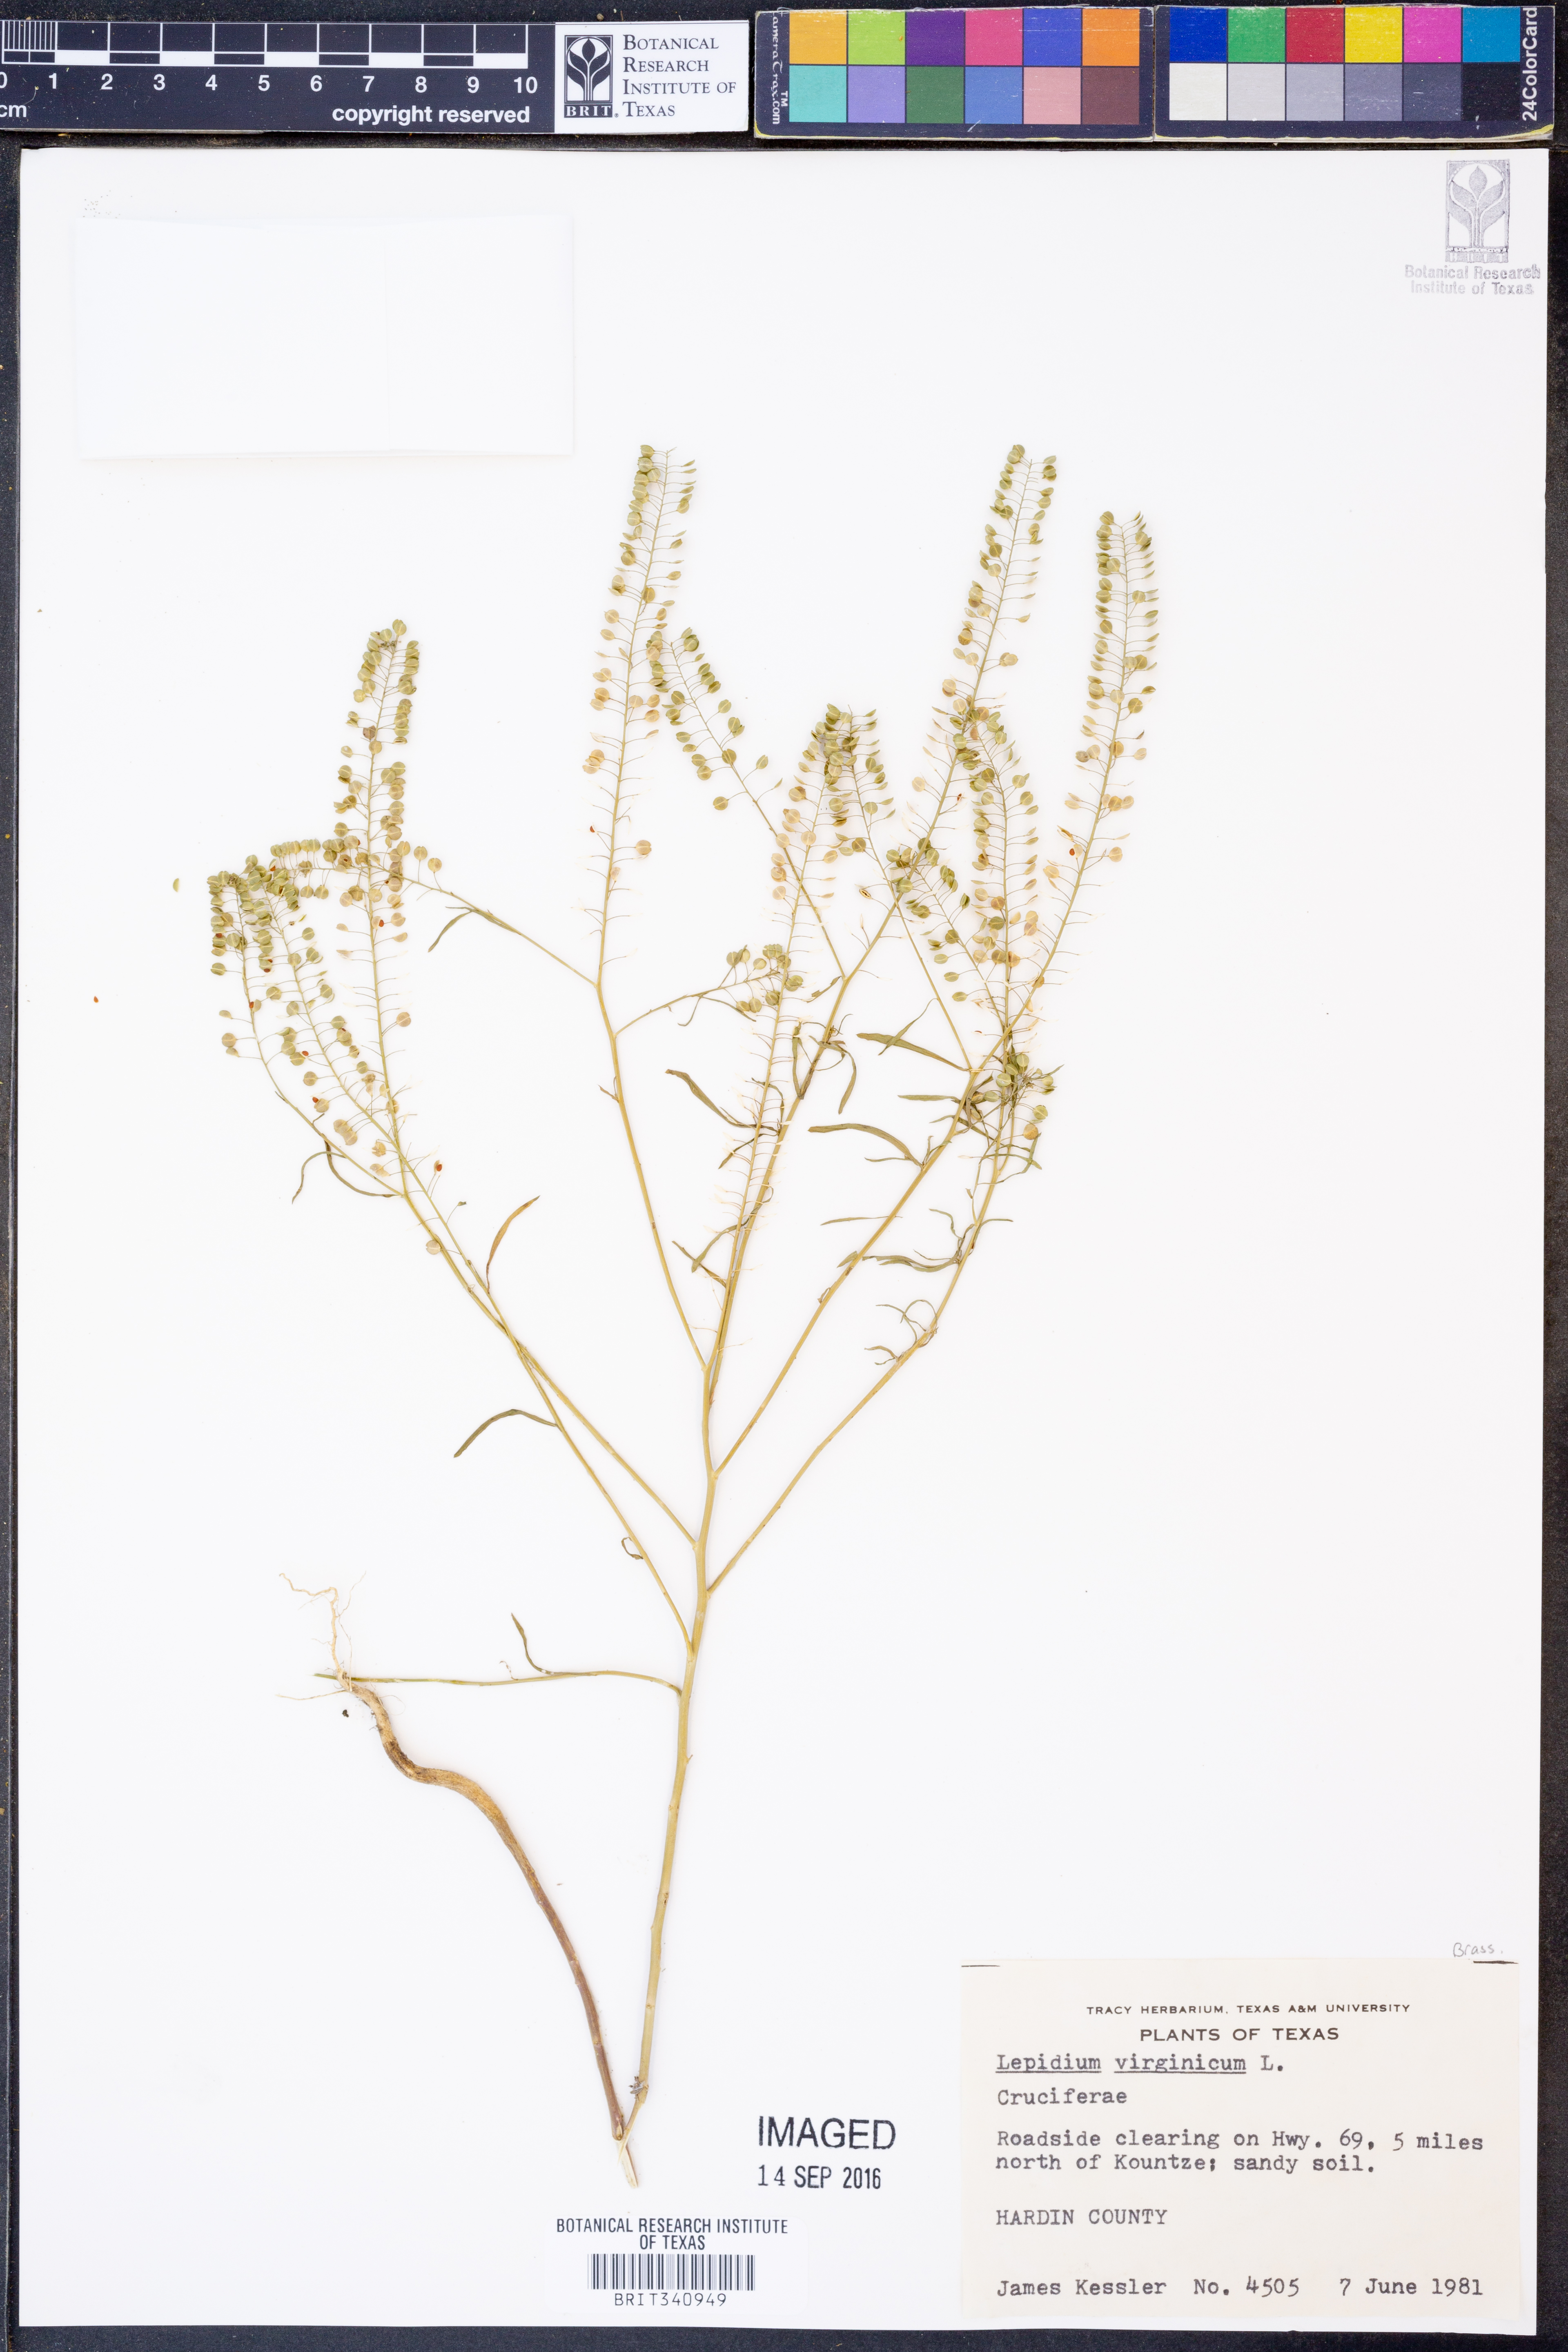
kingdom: Plantae
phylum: Tracheophyta
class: Magnoliopsida
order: Brassicales
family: Brassicaceae
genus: Lepidium
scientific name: Lepidium virginicum
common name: Least pepperwort
